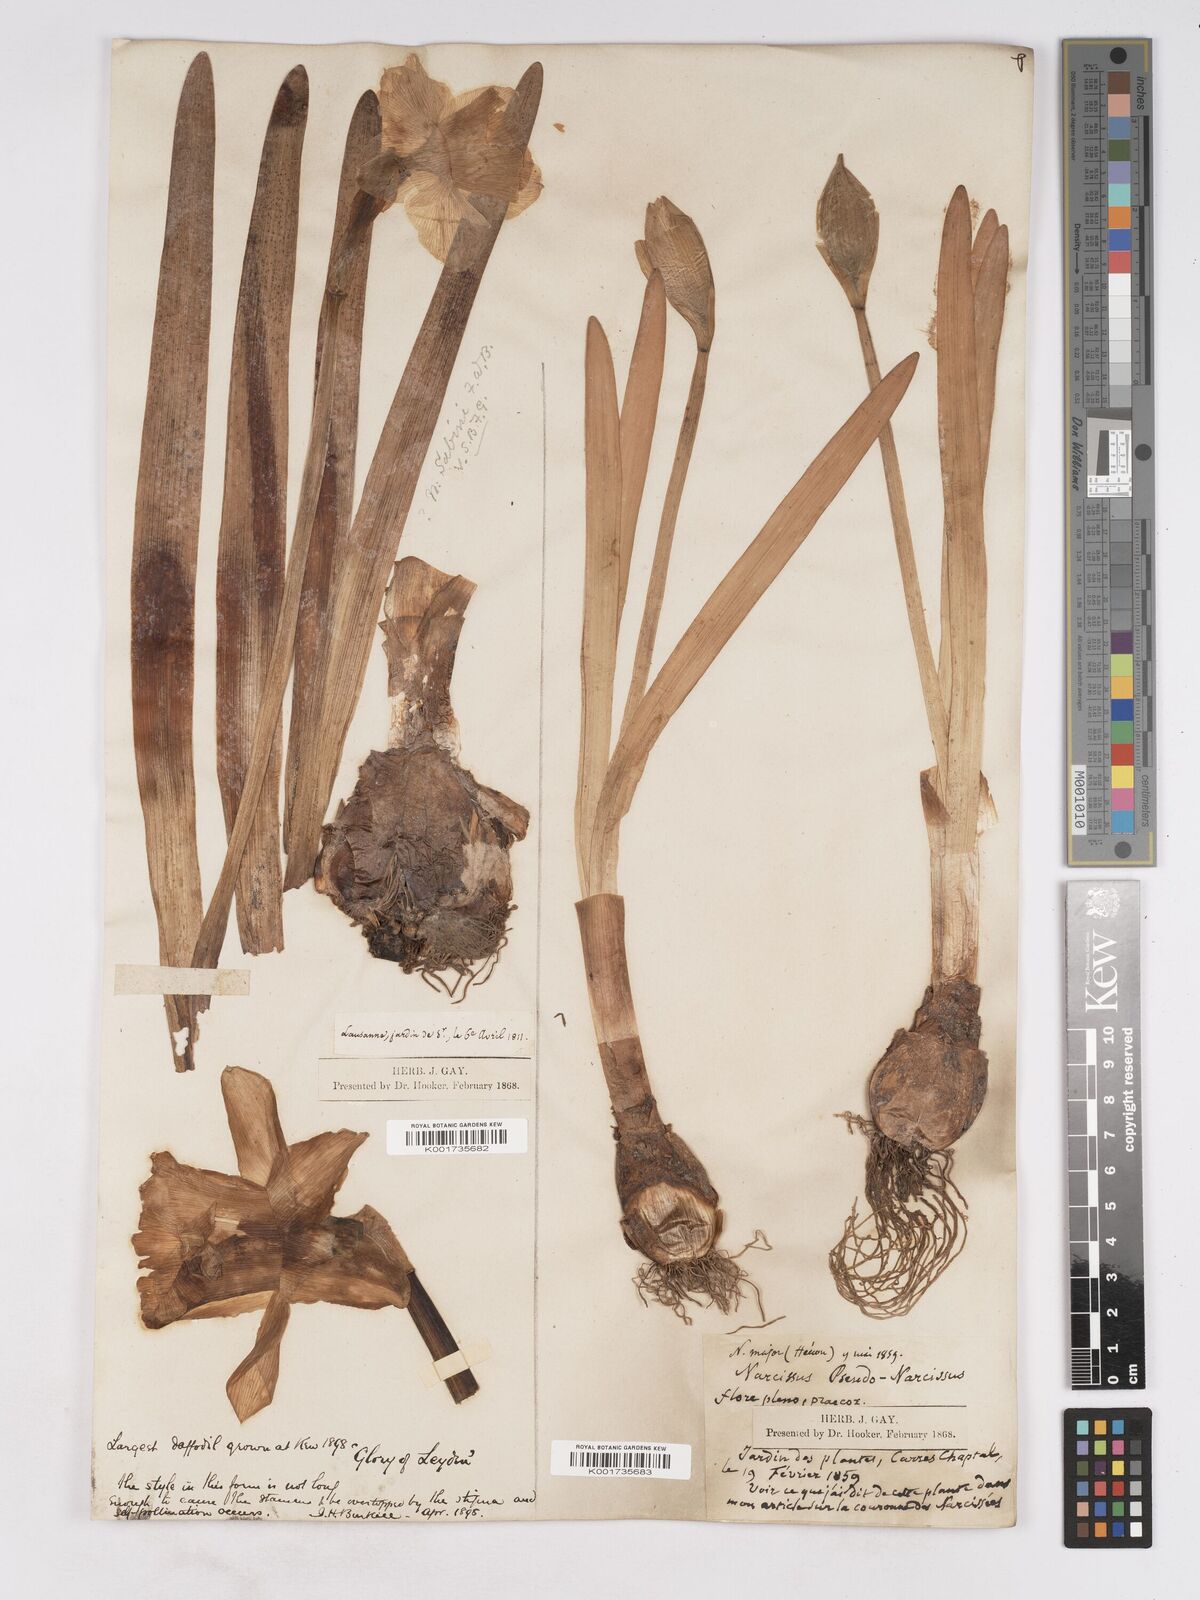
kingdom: Plantae
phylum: Tracheophyta
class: Liliopsida
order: Asparagales
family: Amaryllidaceae
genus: Narcissus
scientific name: Narcissus pseudonarcissus
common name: Daffodil
